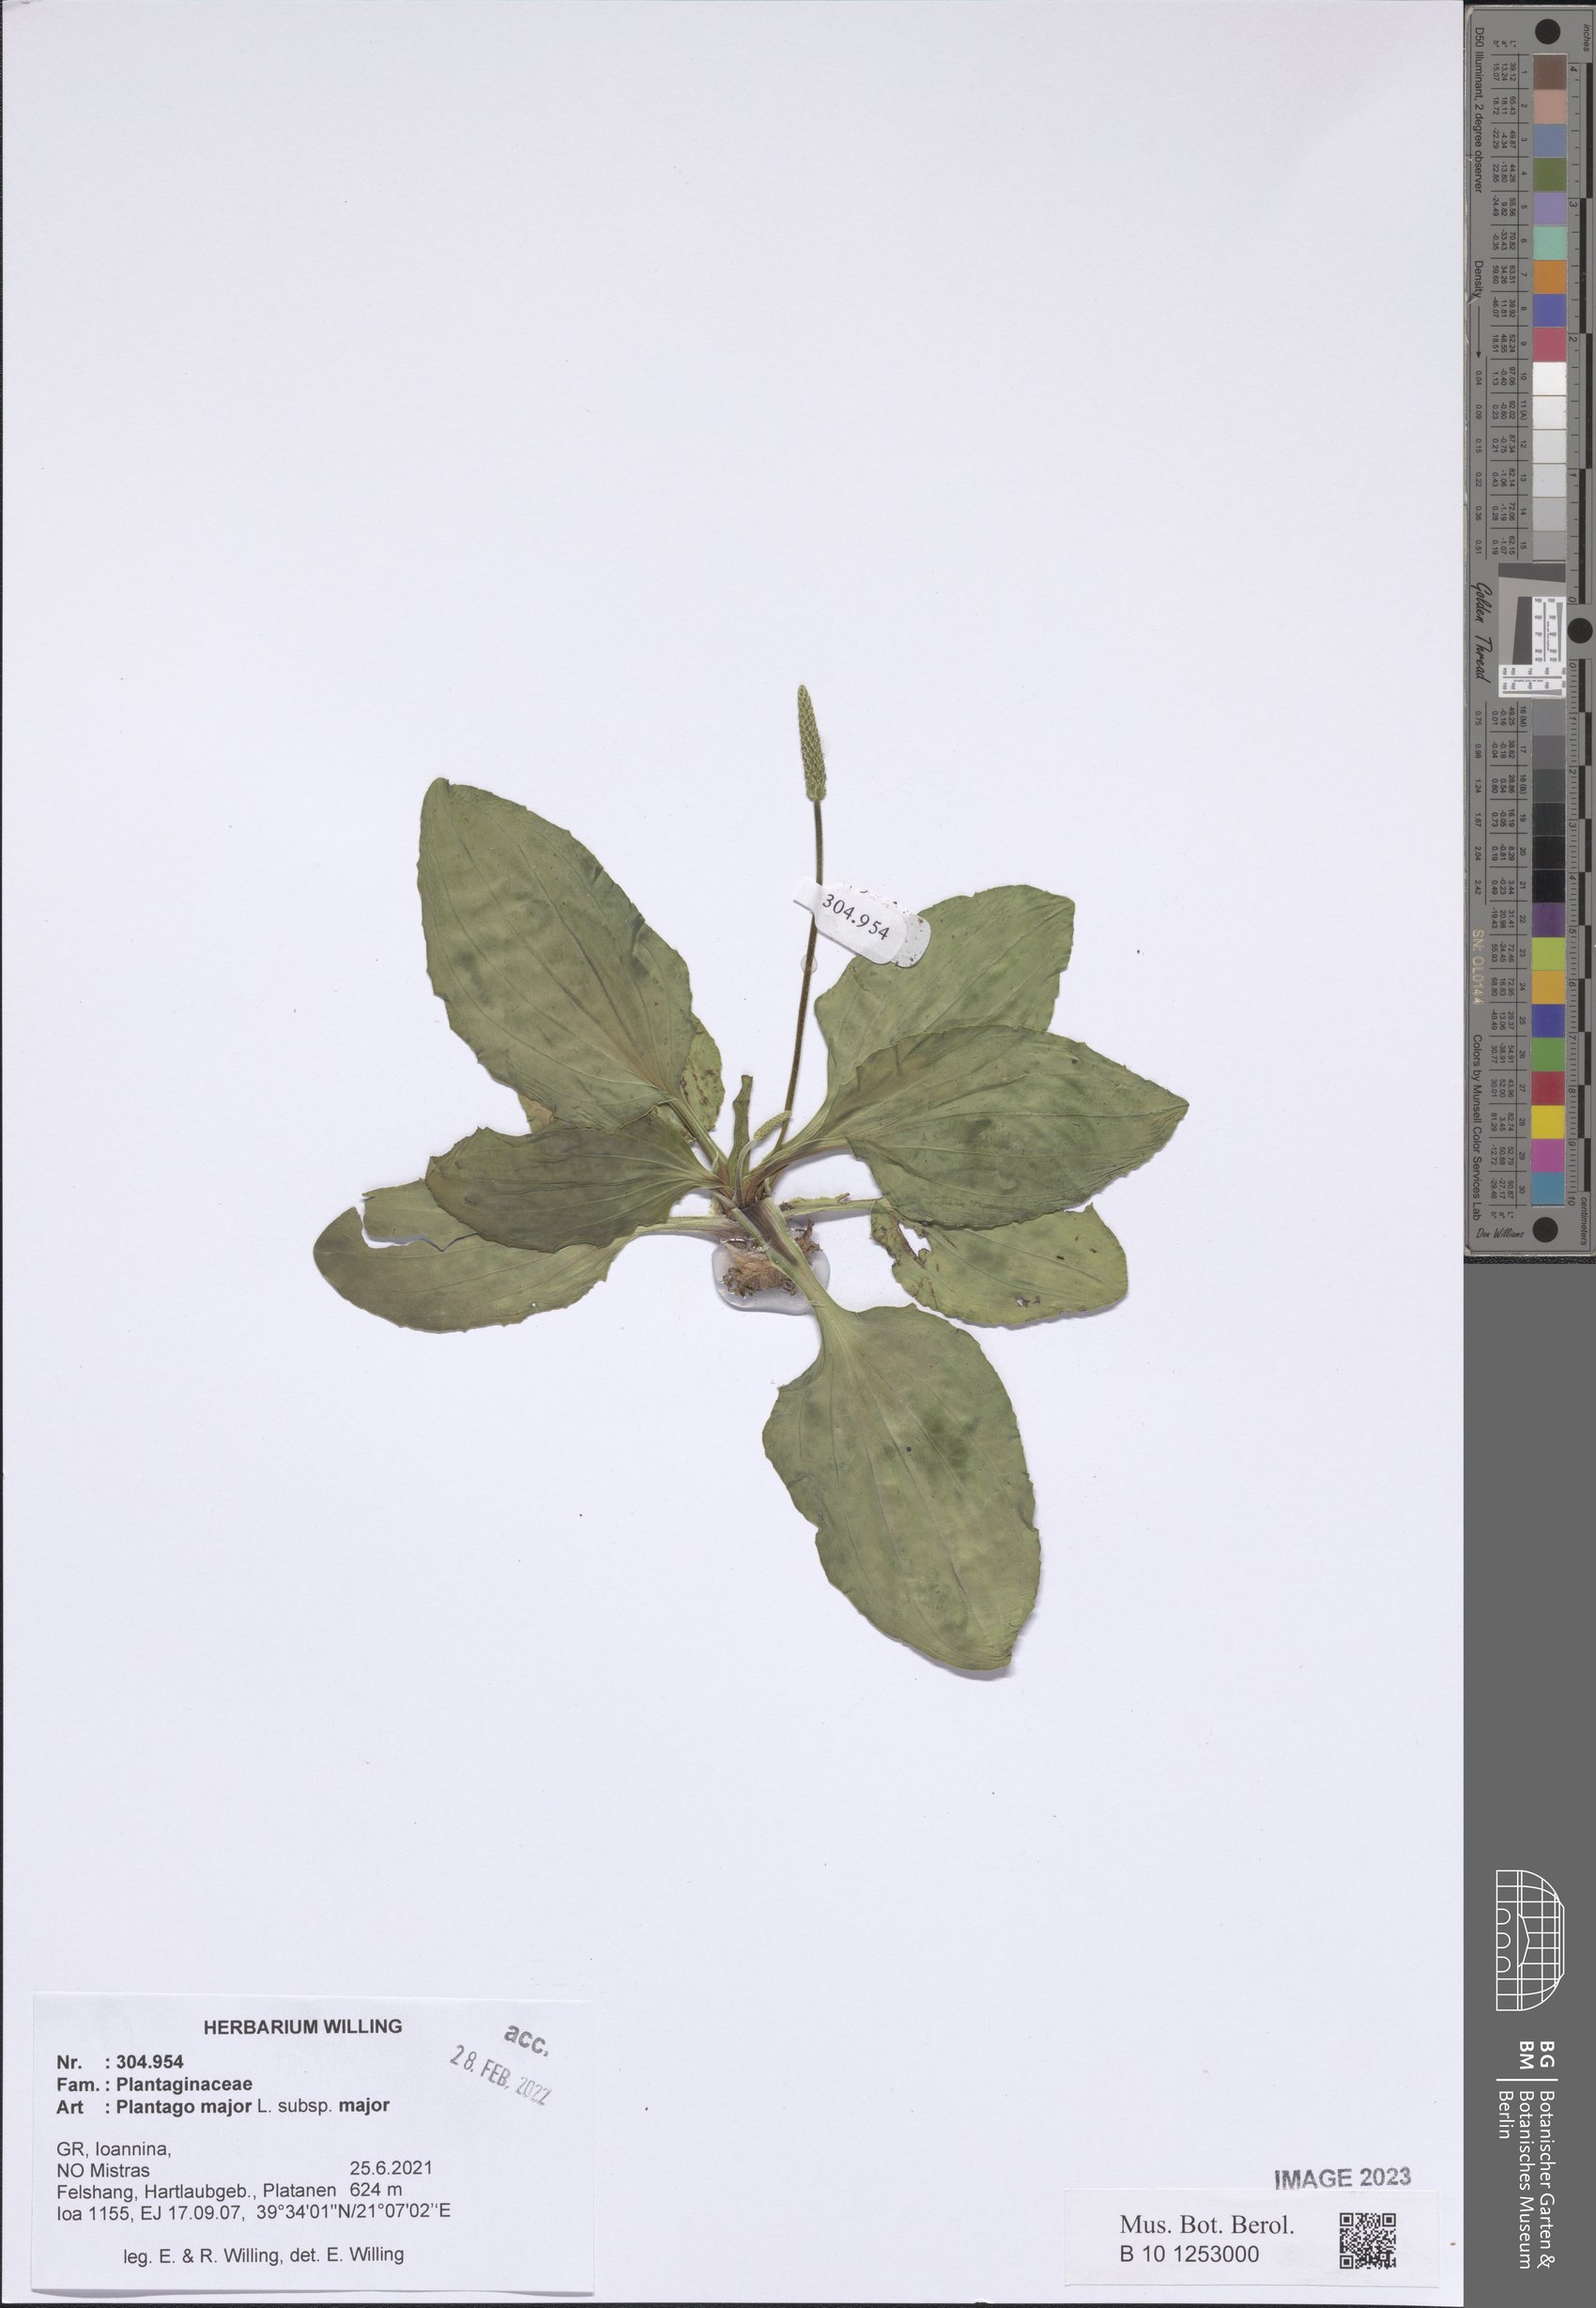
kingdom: Plantae
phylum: Tracheophyta
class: Magnoliopsida
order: Lamiales
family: Plantaginaceae
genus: Plantago
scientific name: Plantago major
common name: Common plantain
